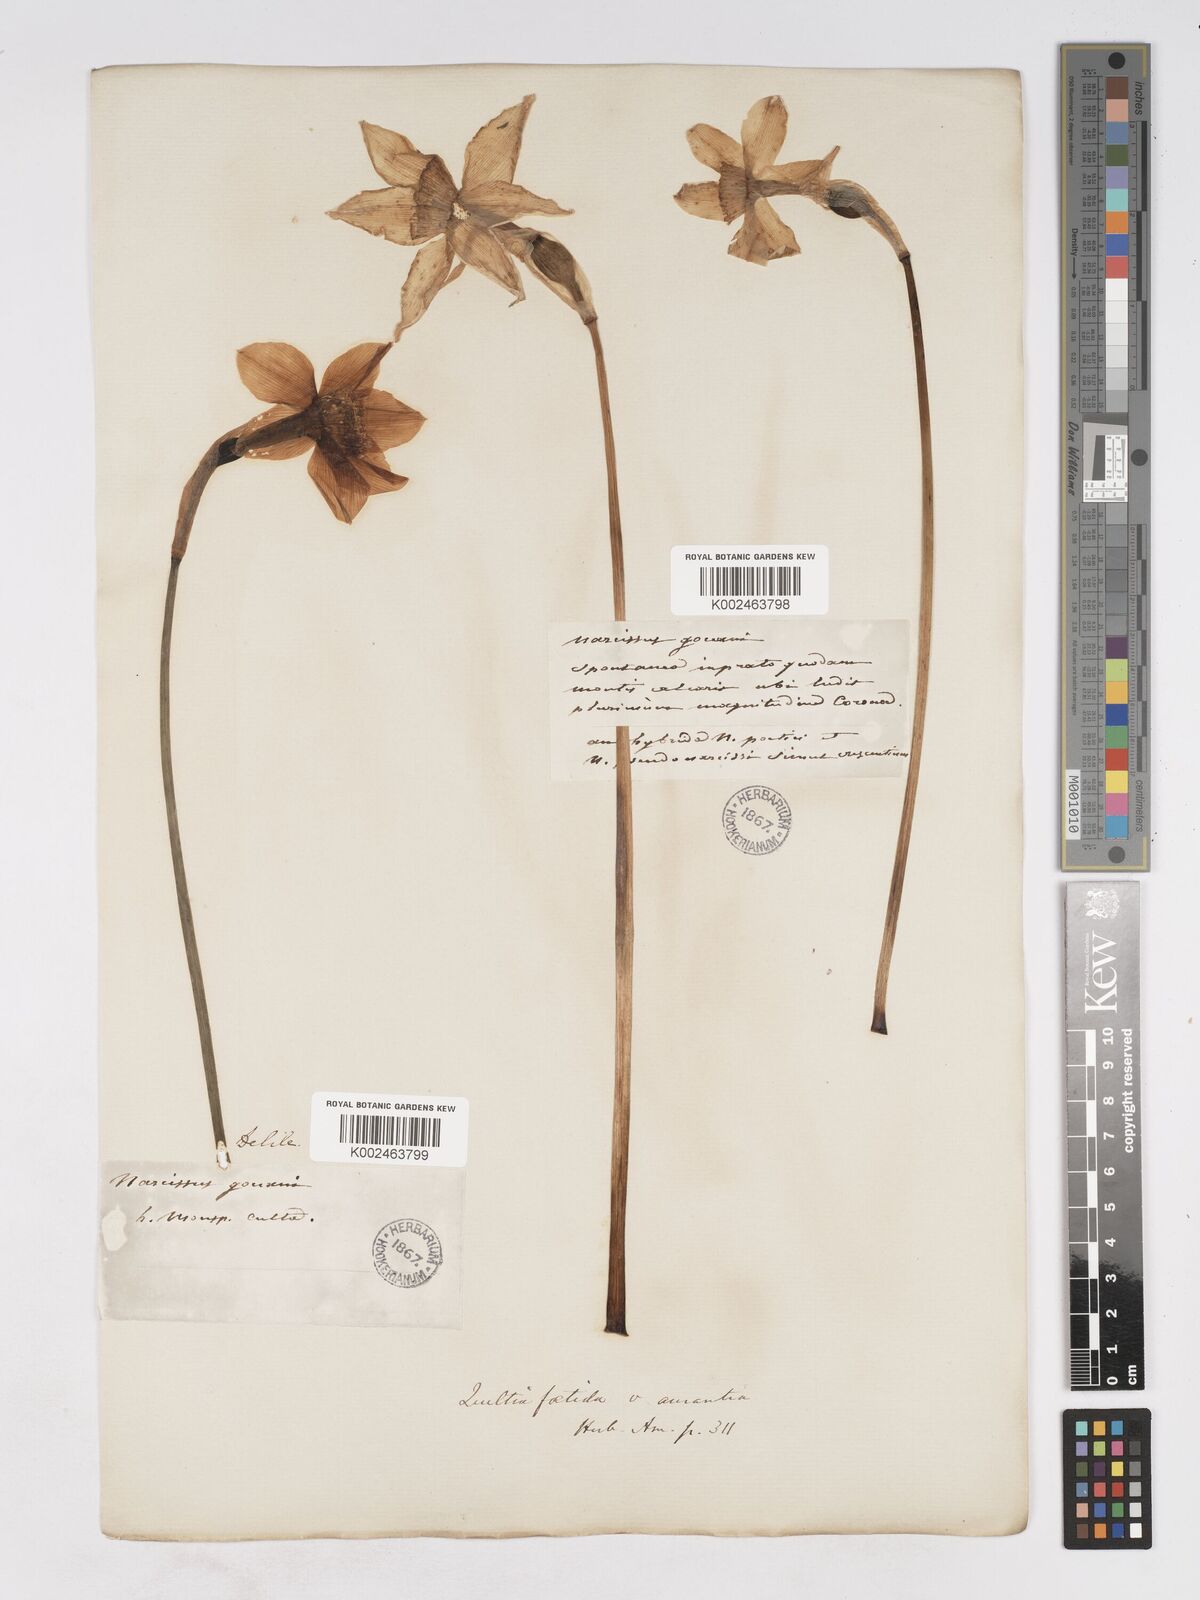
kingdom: Plantae
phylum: Tracheophyta
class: Liliopsida
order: Asparagales
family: Amaryllidaceae
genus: Narcissus
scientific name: Narcissus incomparabilis
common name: Nonesuch daffodil
